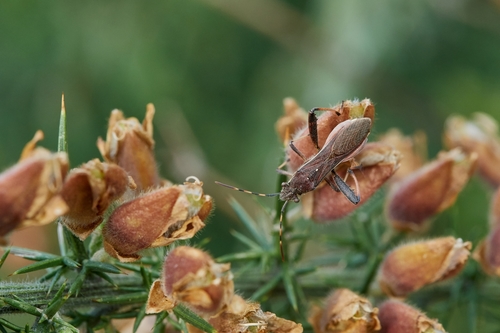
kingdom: Animalia
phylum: Arthropoda
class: Insecta
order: Hemiptera
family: Alydidae
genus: Camptopus
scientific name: Camptopus lateralis
